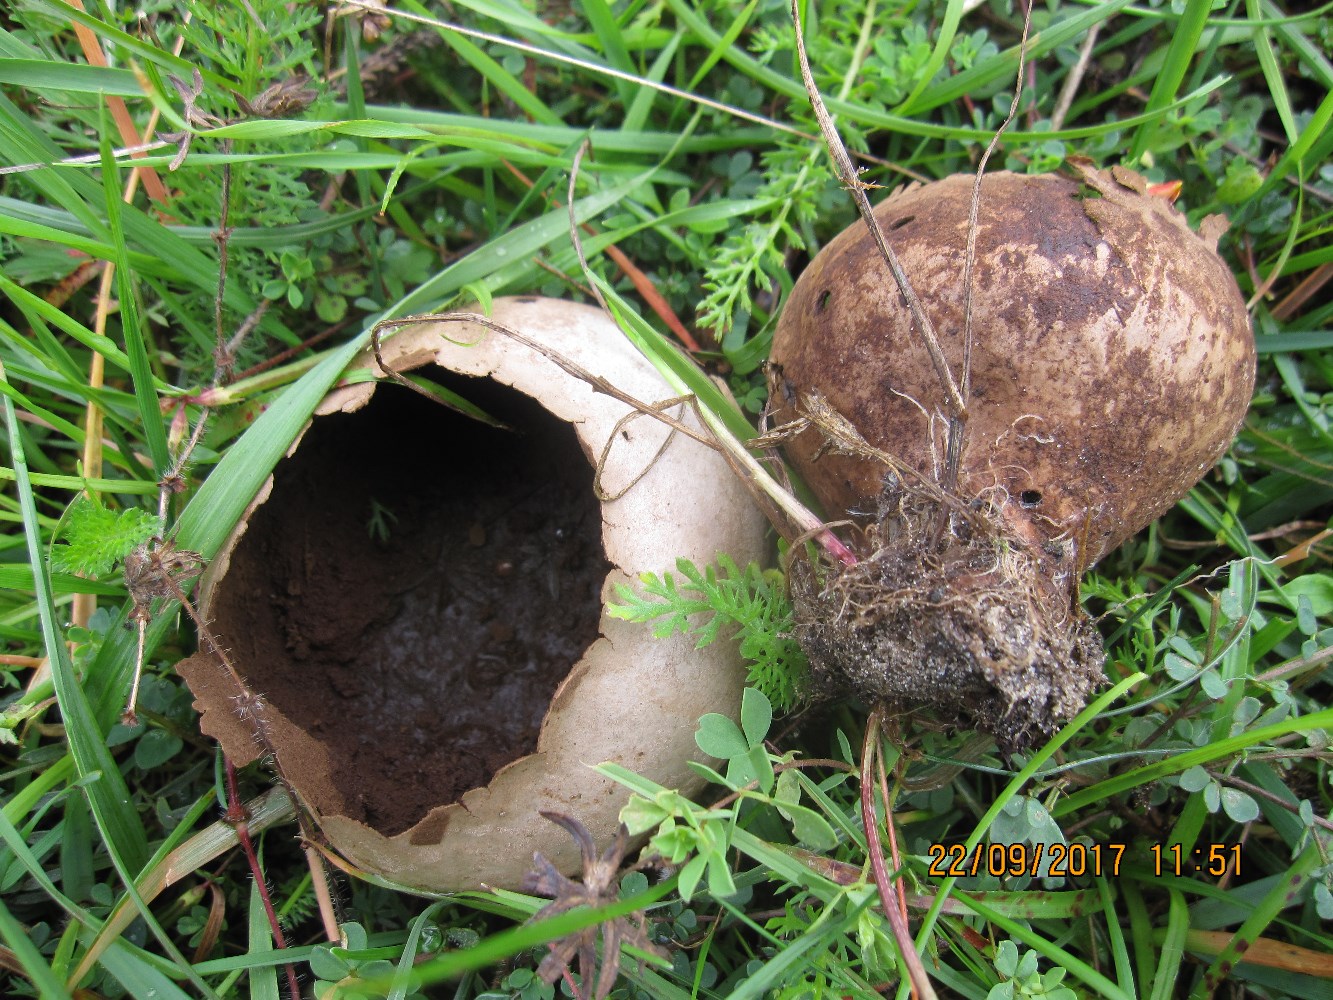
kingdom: Fungi
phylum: Basidiomycota
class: Agaricomycetes
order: Agaricales
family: Lycoperdaceae
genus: Bovistella
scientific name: Bovistella utriformis
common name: skællet støvbold
